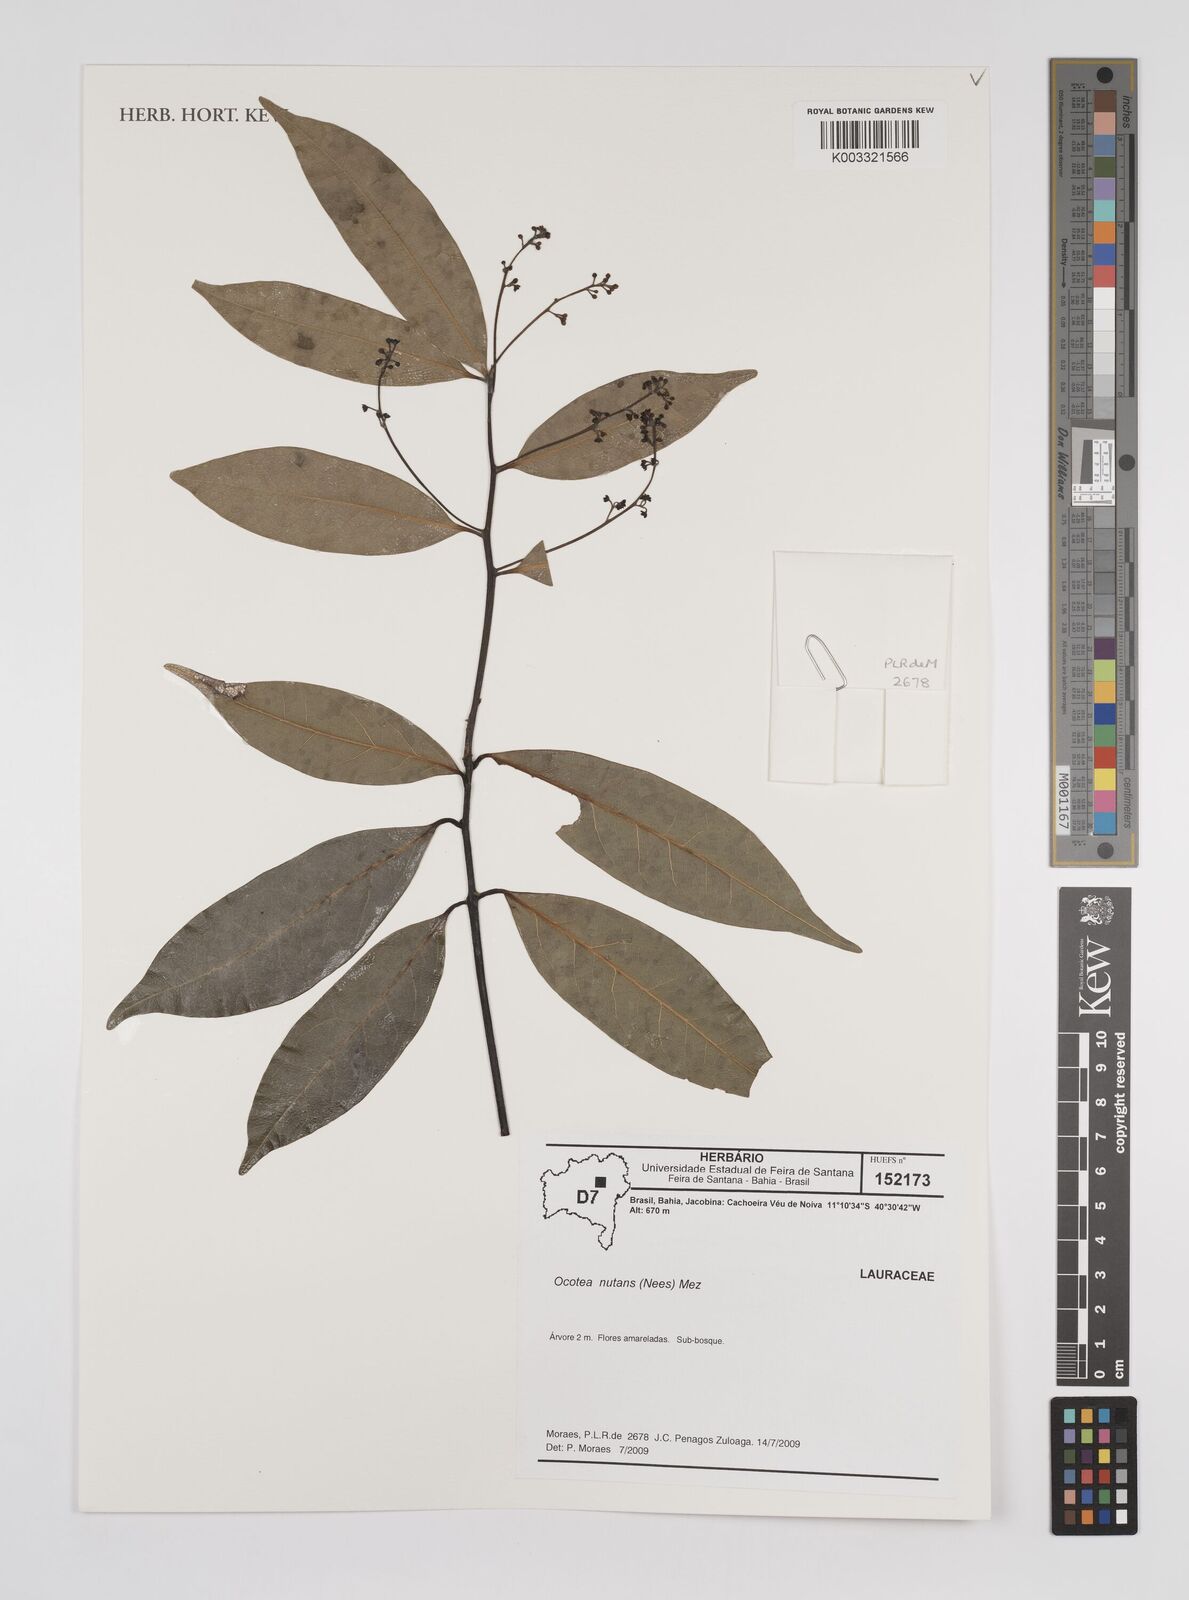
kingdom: Plantae
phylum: Tracheophyta
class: Magnoliopsida
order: Laurales
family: Lauraceae
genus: Mespilodaphne
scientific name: Mespilodaphne nutans
